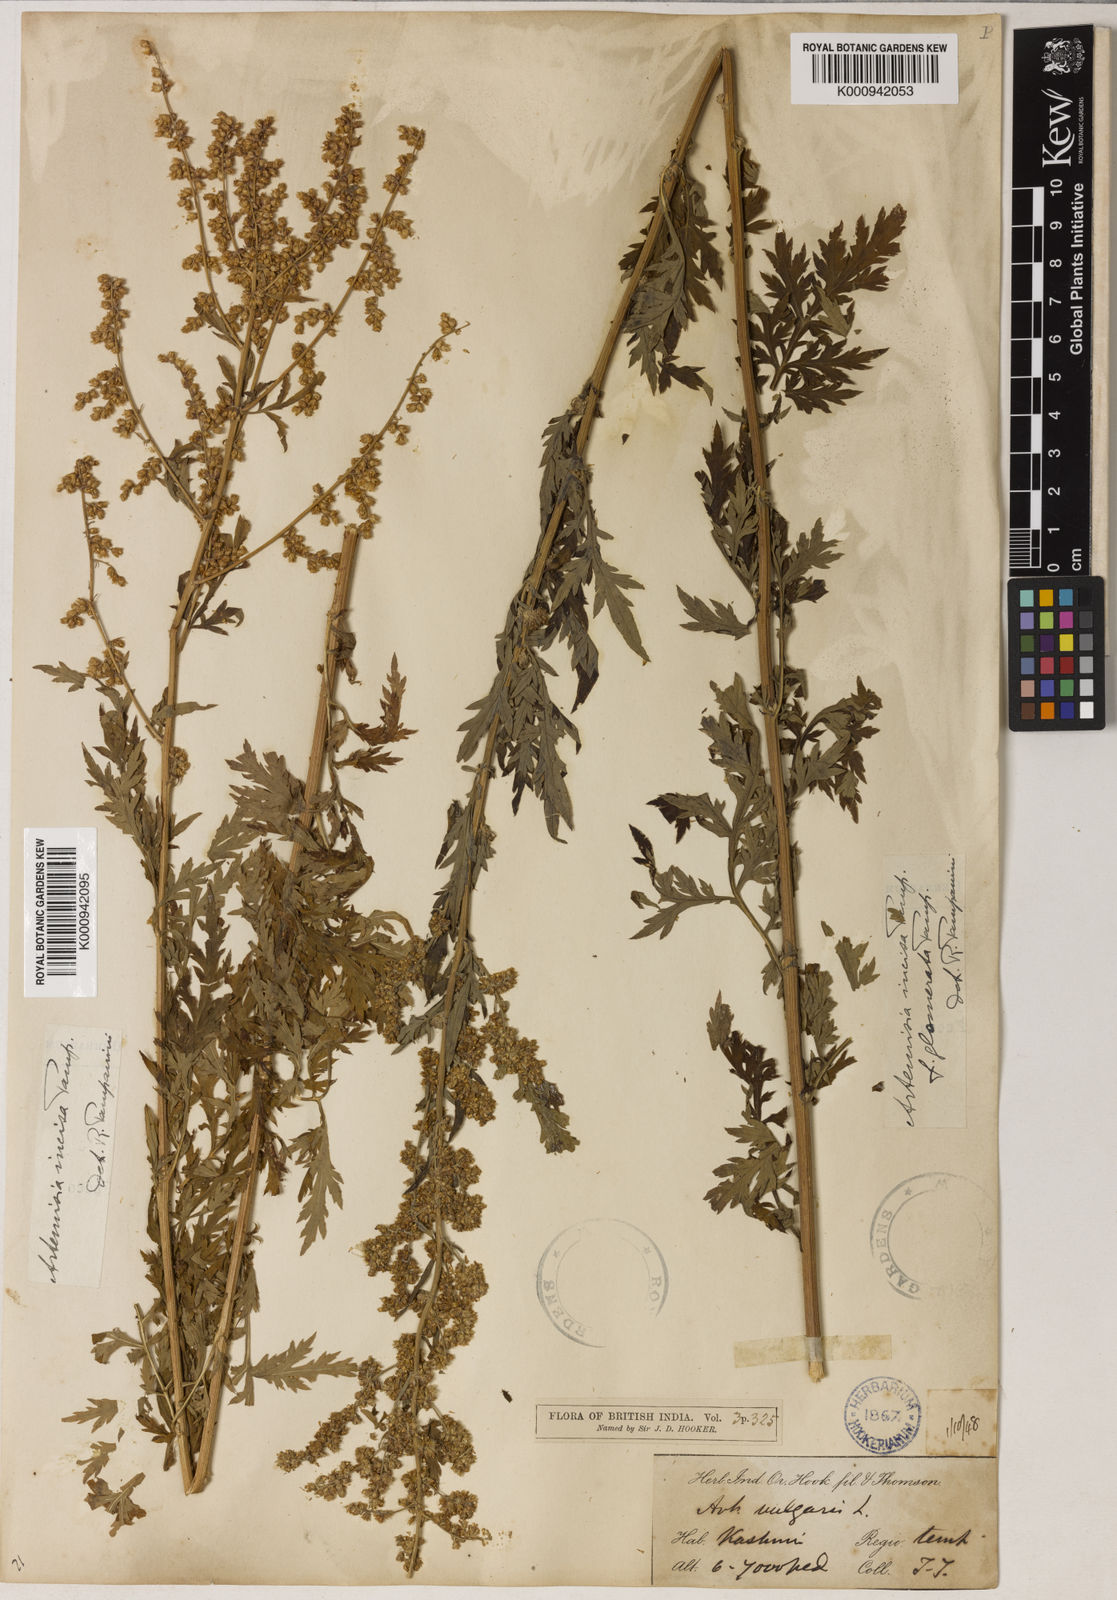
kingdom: Plantae
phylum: Tracheophyta
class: Magnoliopsida
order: Asterales
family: Asteraceae
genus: Artemisia
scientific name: Artemisia incisa
